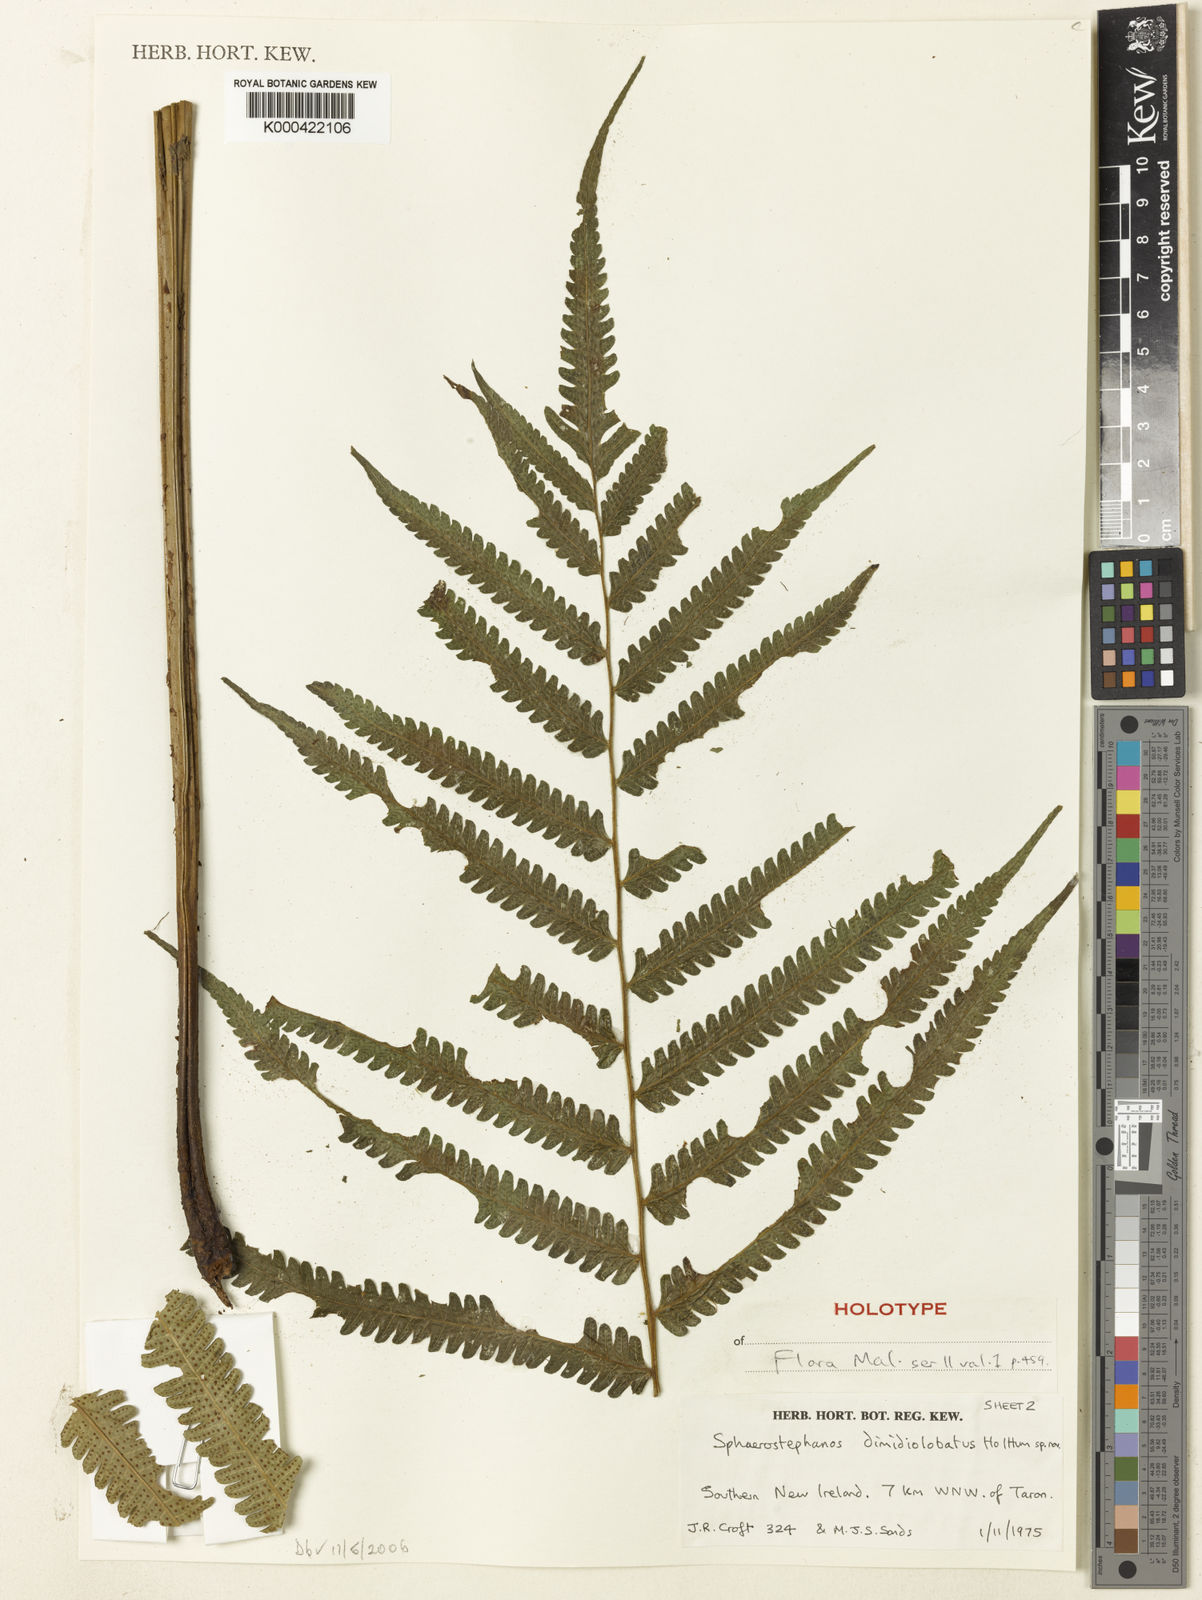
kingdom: Plantae
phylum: Tracheophyta
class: Polypodiopsida
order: Polypodiales
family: Thelypteridaceae
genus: Sphaerostephanos
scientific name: Sphaerostephanos dimidiolobatus
